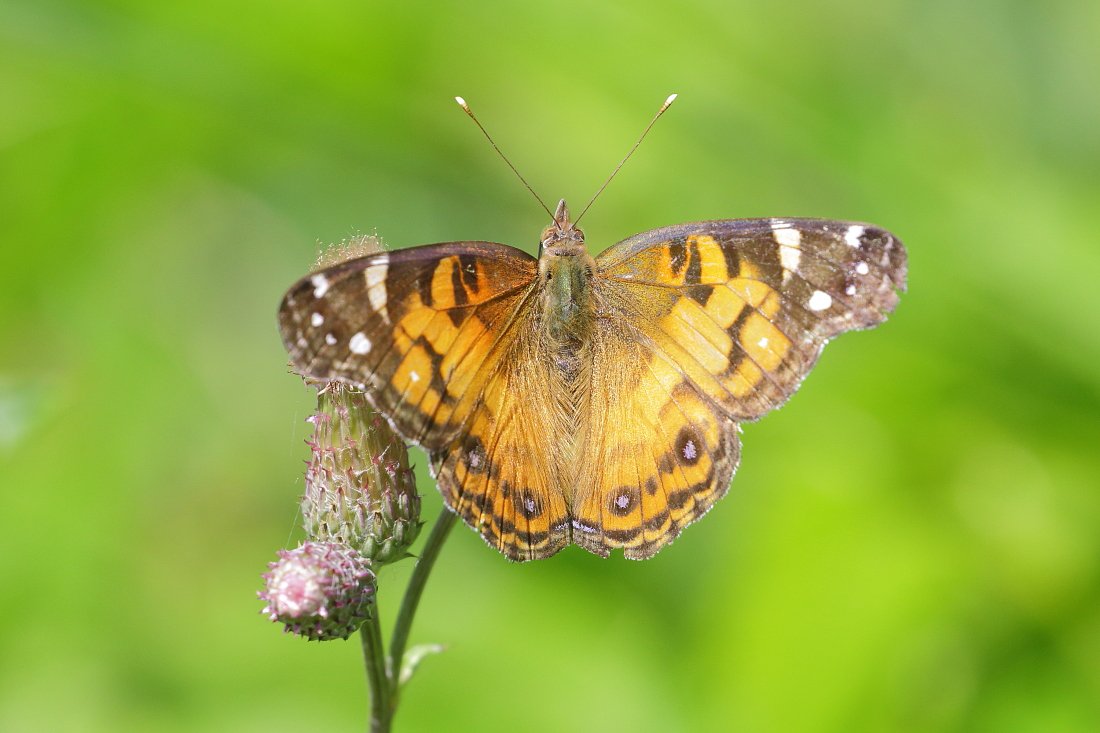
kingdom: Animalia
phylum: Arthropoda
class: Insecta
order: Lepidoptera
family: Nymphalidae
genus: Vanessa
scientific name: Vanessa virginiensis
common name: American Lady
